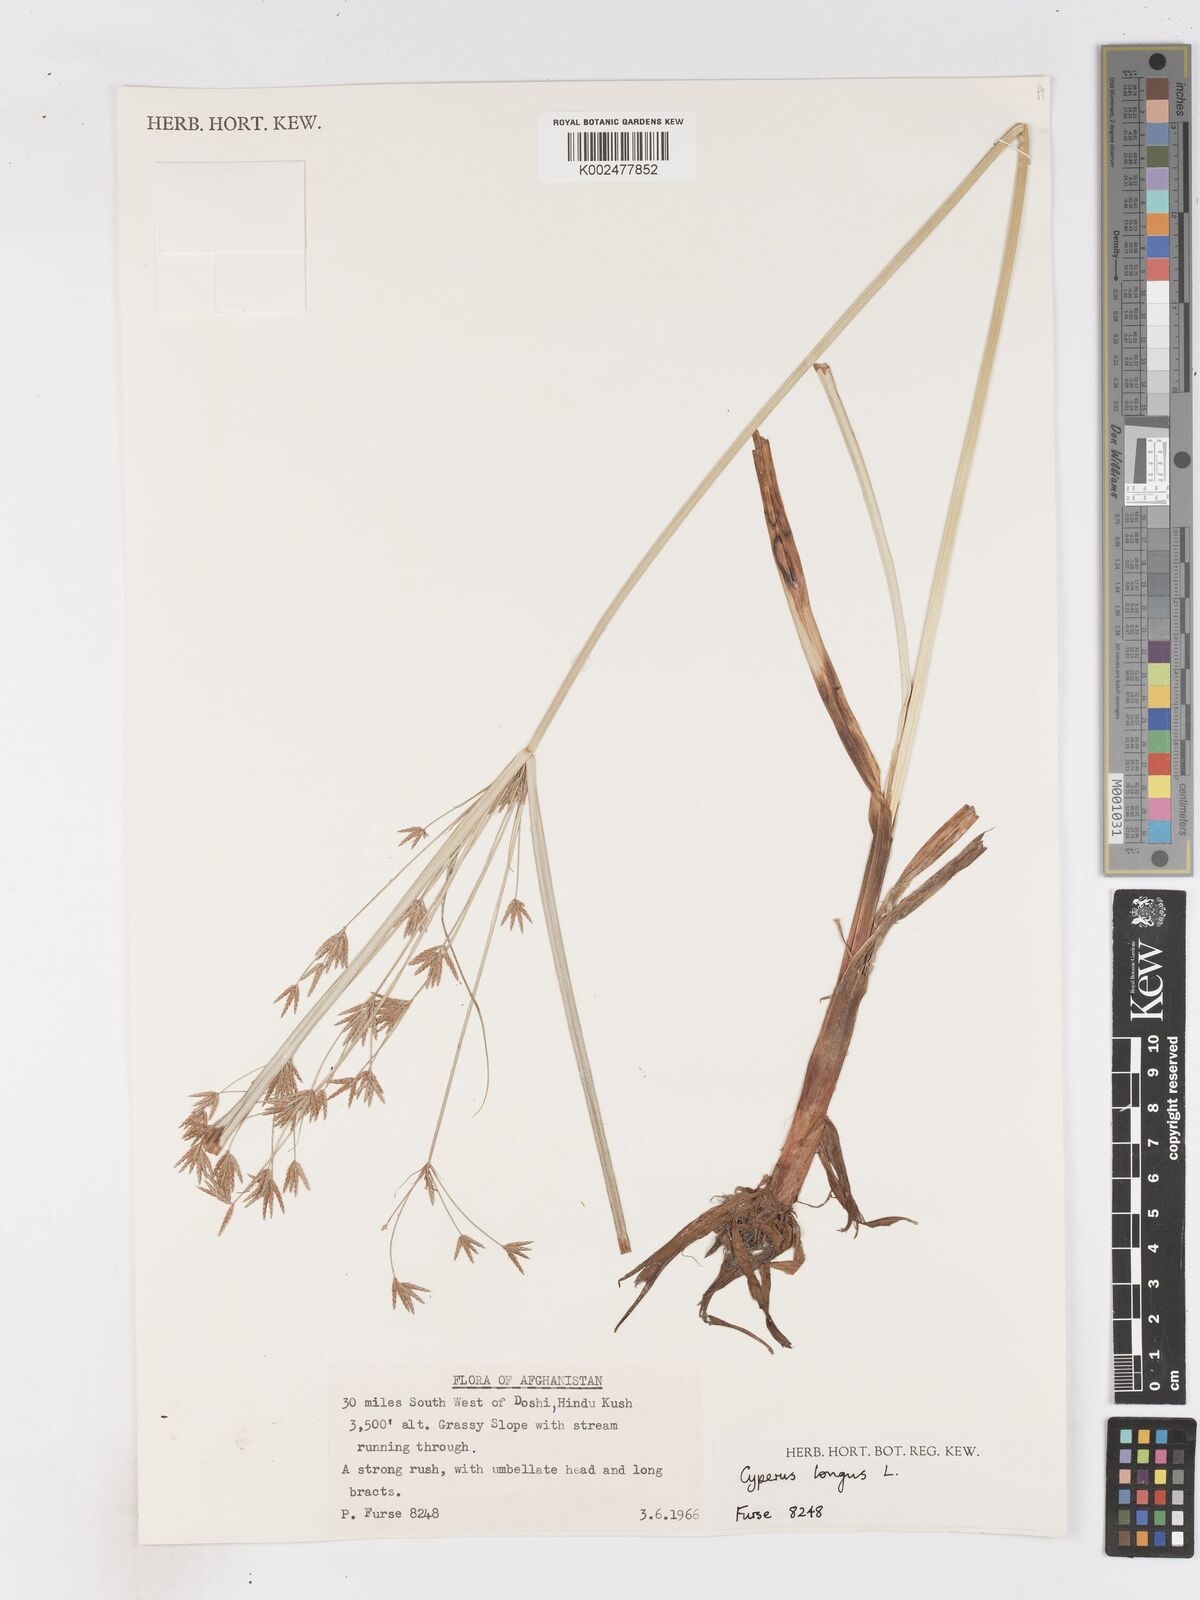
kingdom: Plantae
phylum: Tracheophyta
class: Liliopsida
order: Poales
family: Cyperaceae
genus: Cyperus
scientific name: Cyperus longus
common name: Galingale
